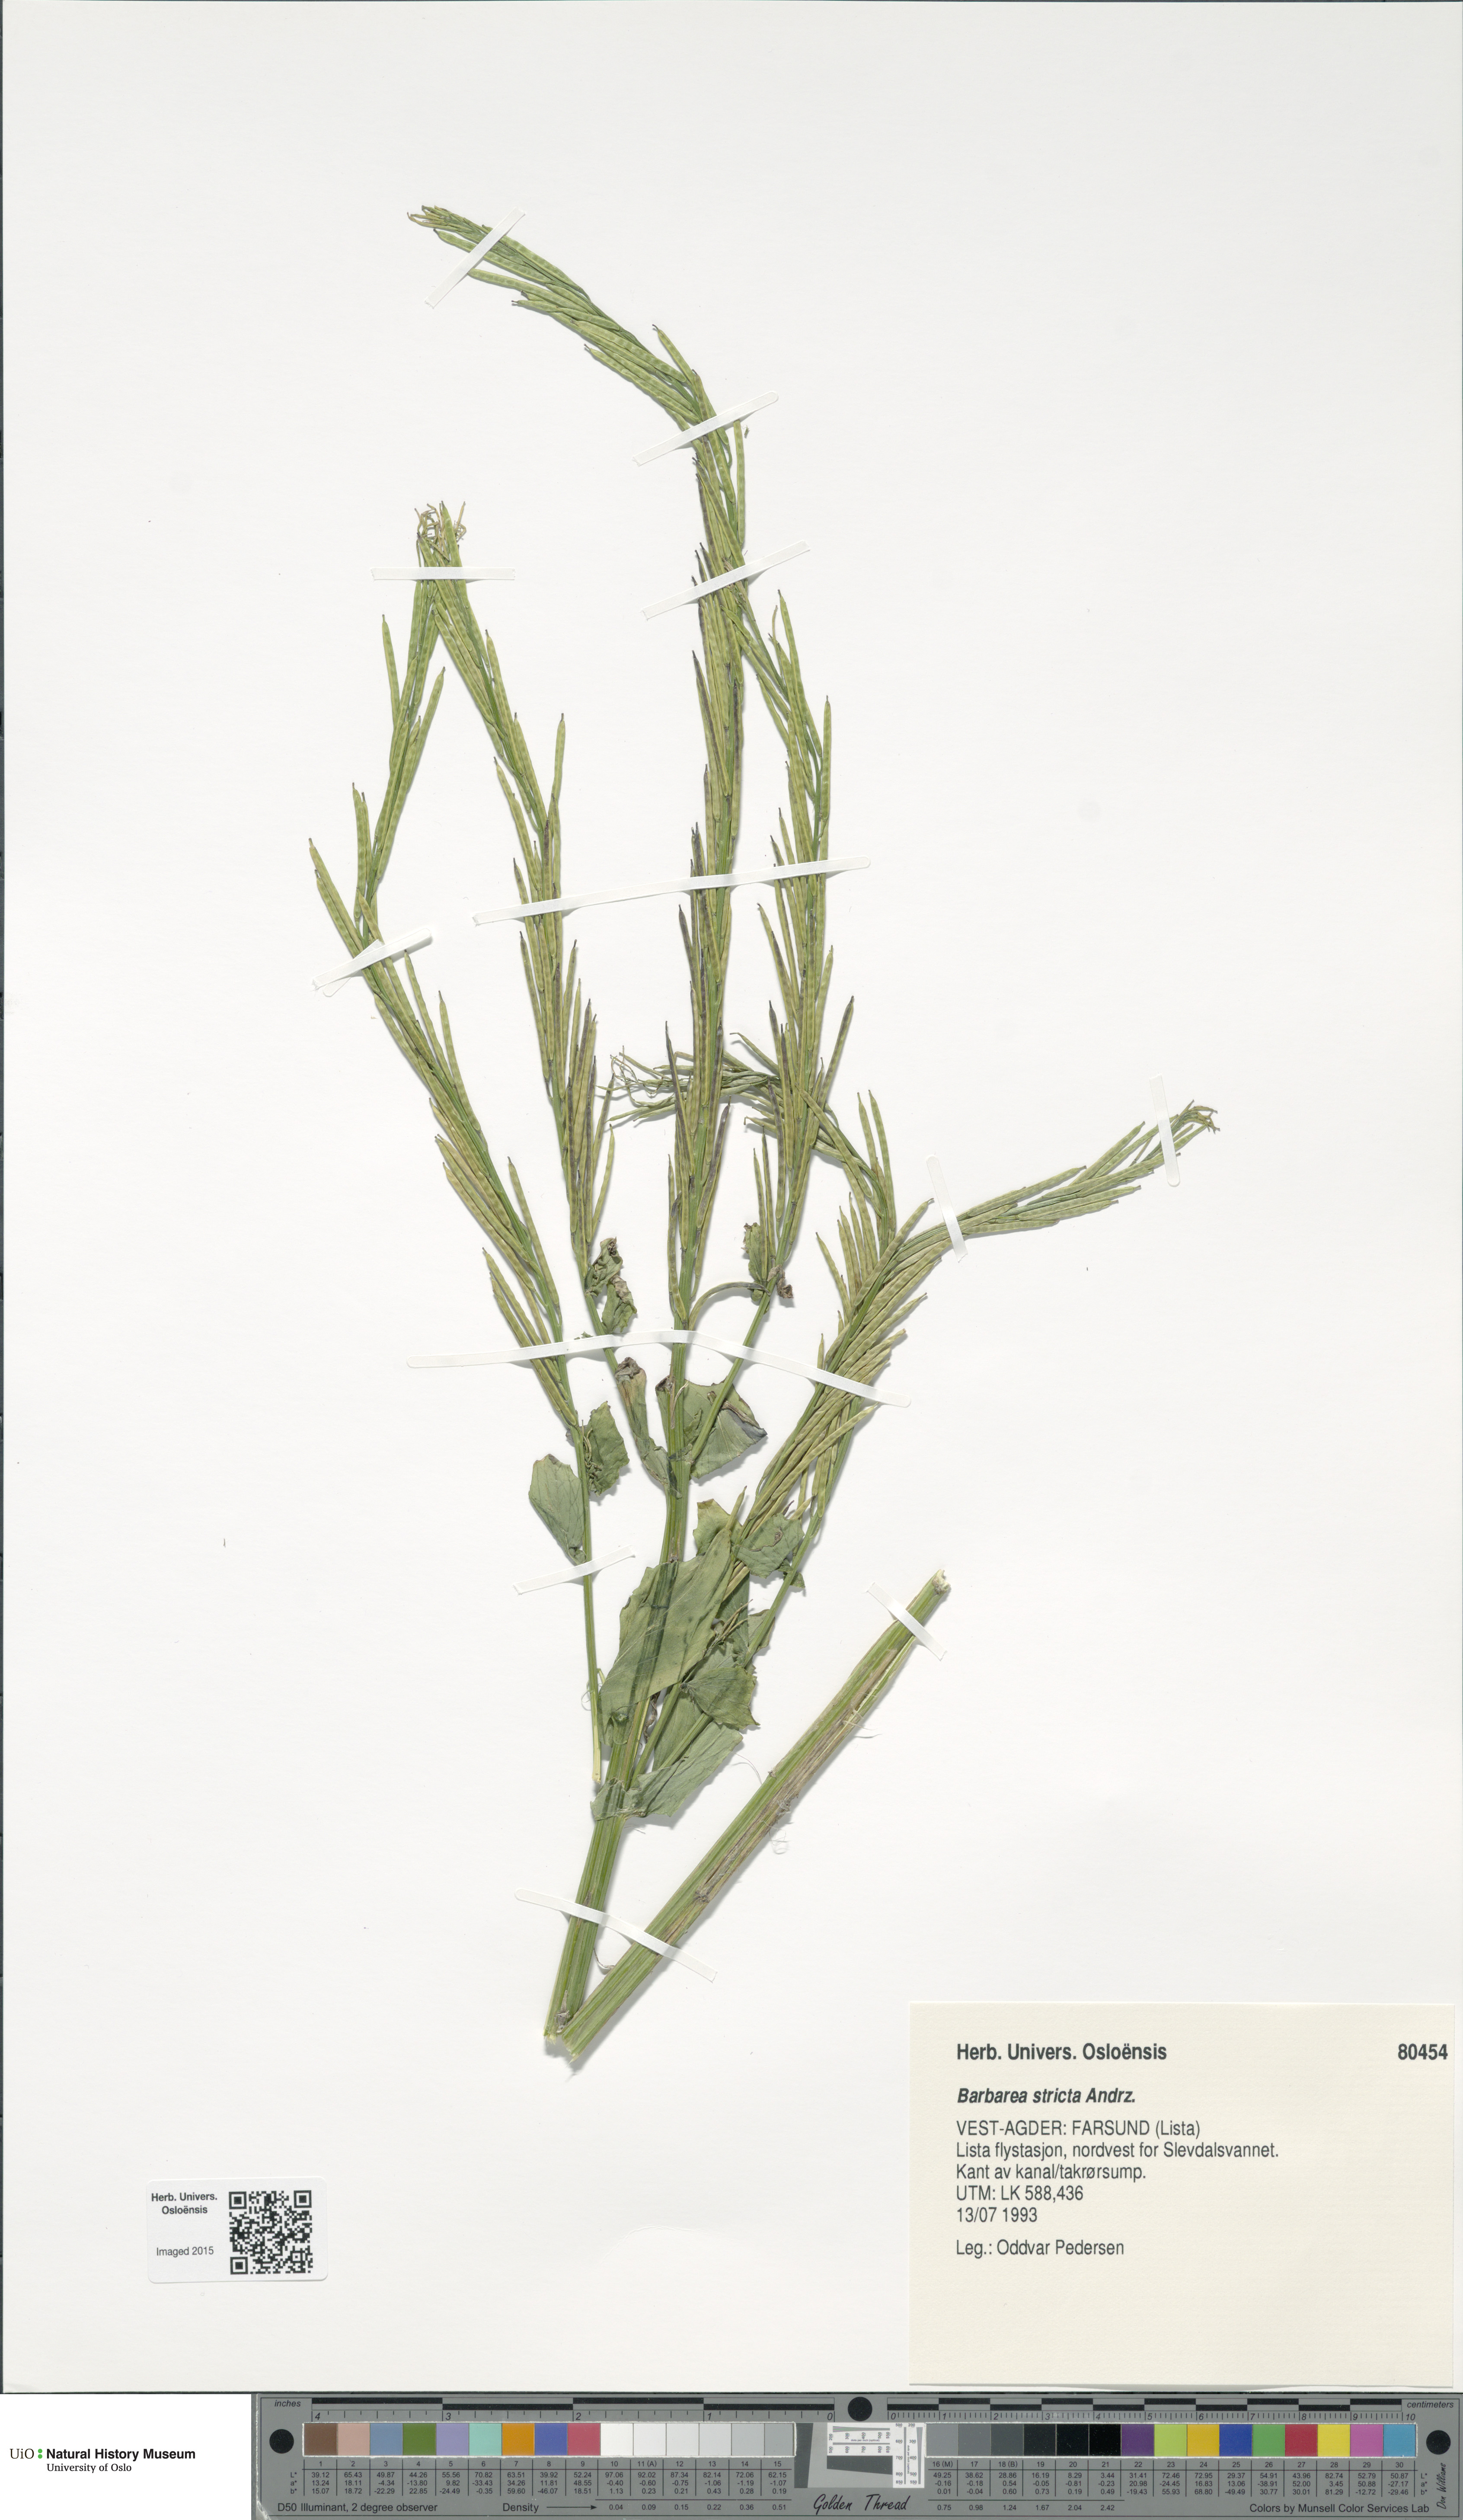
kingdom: Plantae
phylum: Tracheophyta
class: Magnoliopsida
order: Brassicales
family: Brassicaceae
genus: Barbarea
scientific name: Barbarea stricta
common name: Small-flowered winter-cress
